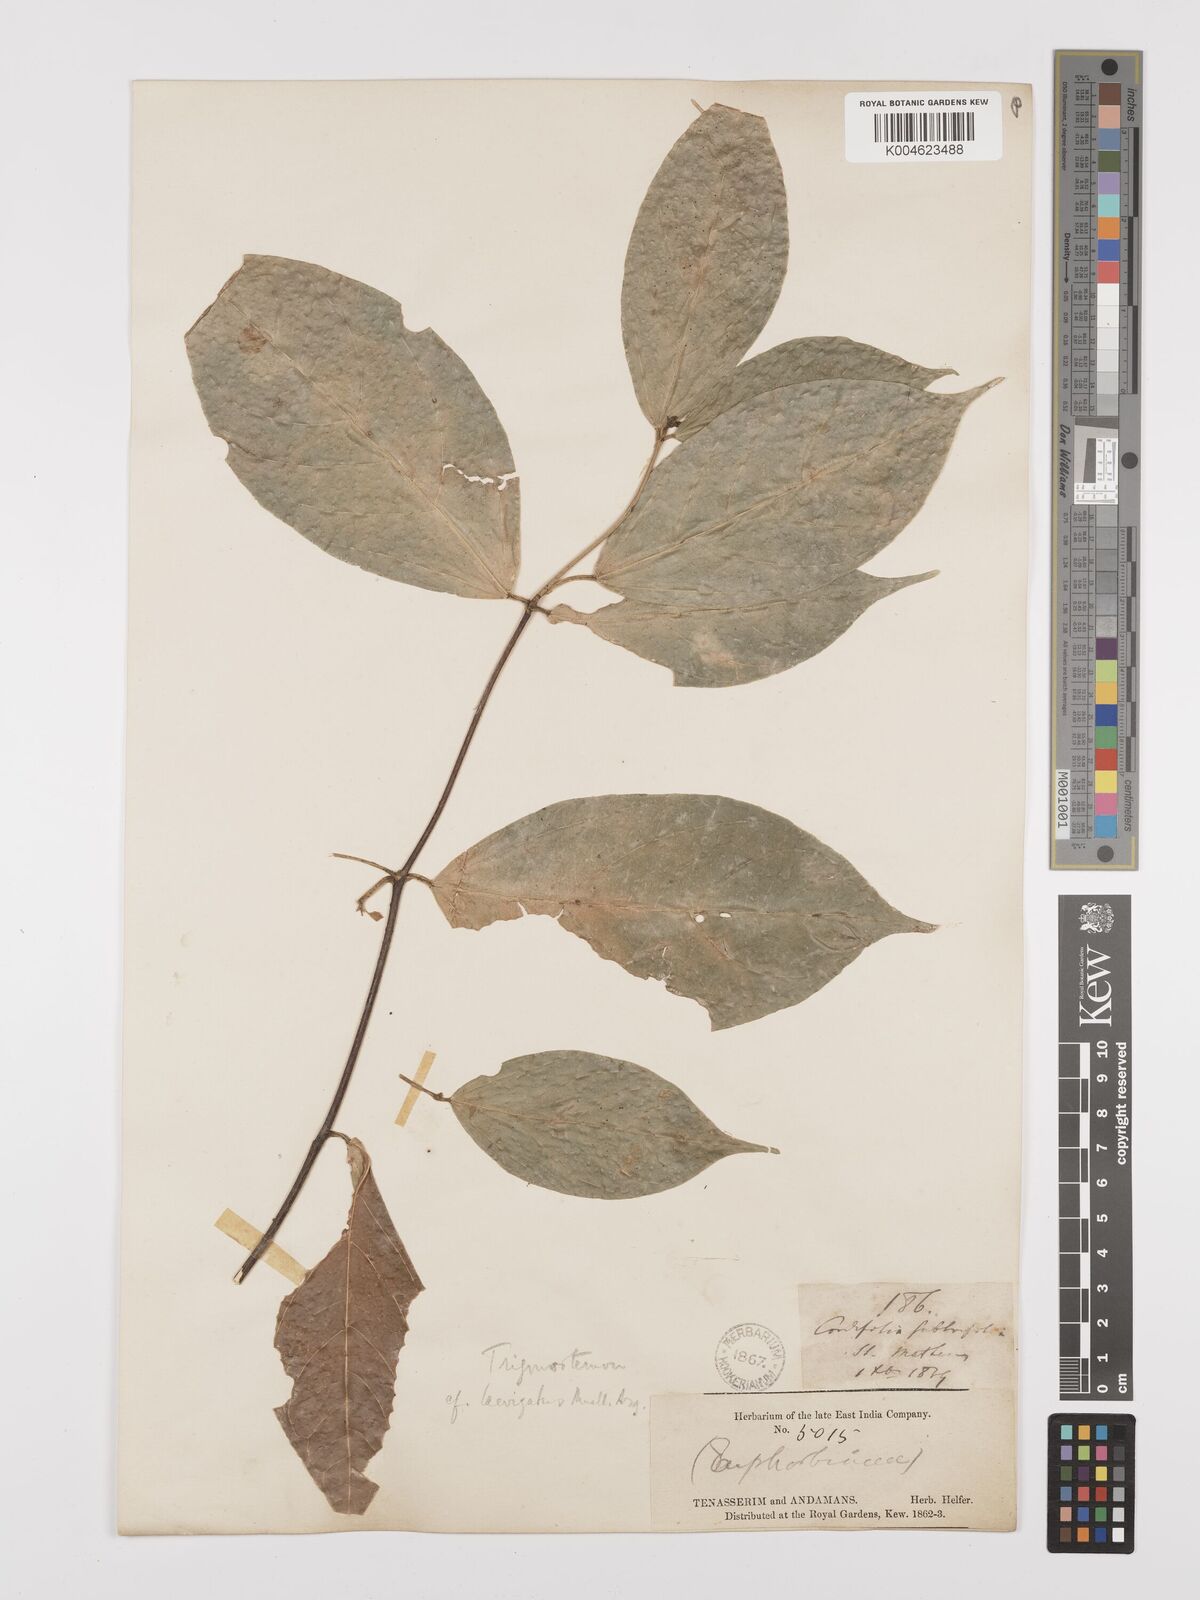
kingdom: Plantae
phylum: Tracheophyta
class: Magnoliopsida
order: Malpighiales
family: Euphorbiaceae
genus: Trigonostemon
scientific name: Trigonostemon laevigatus
